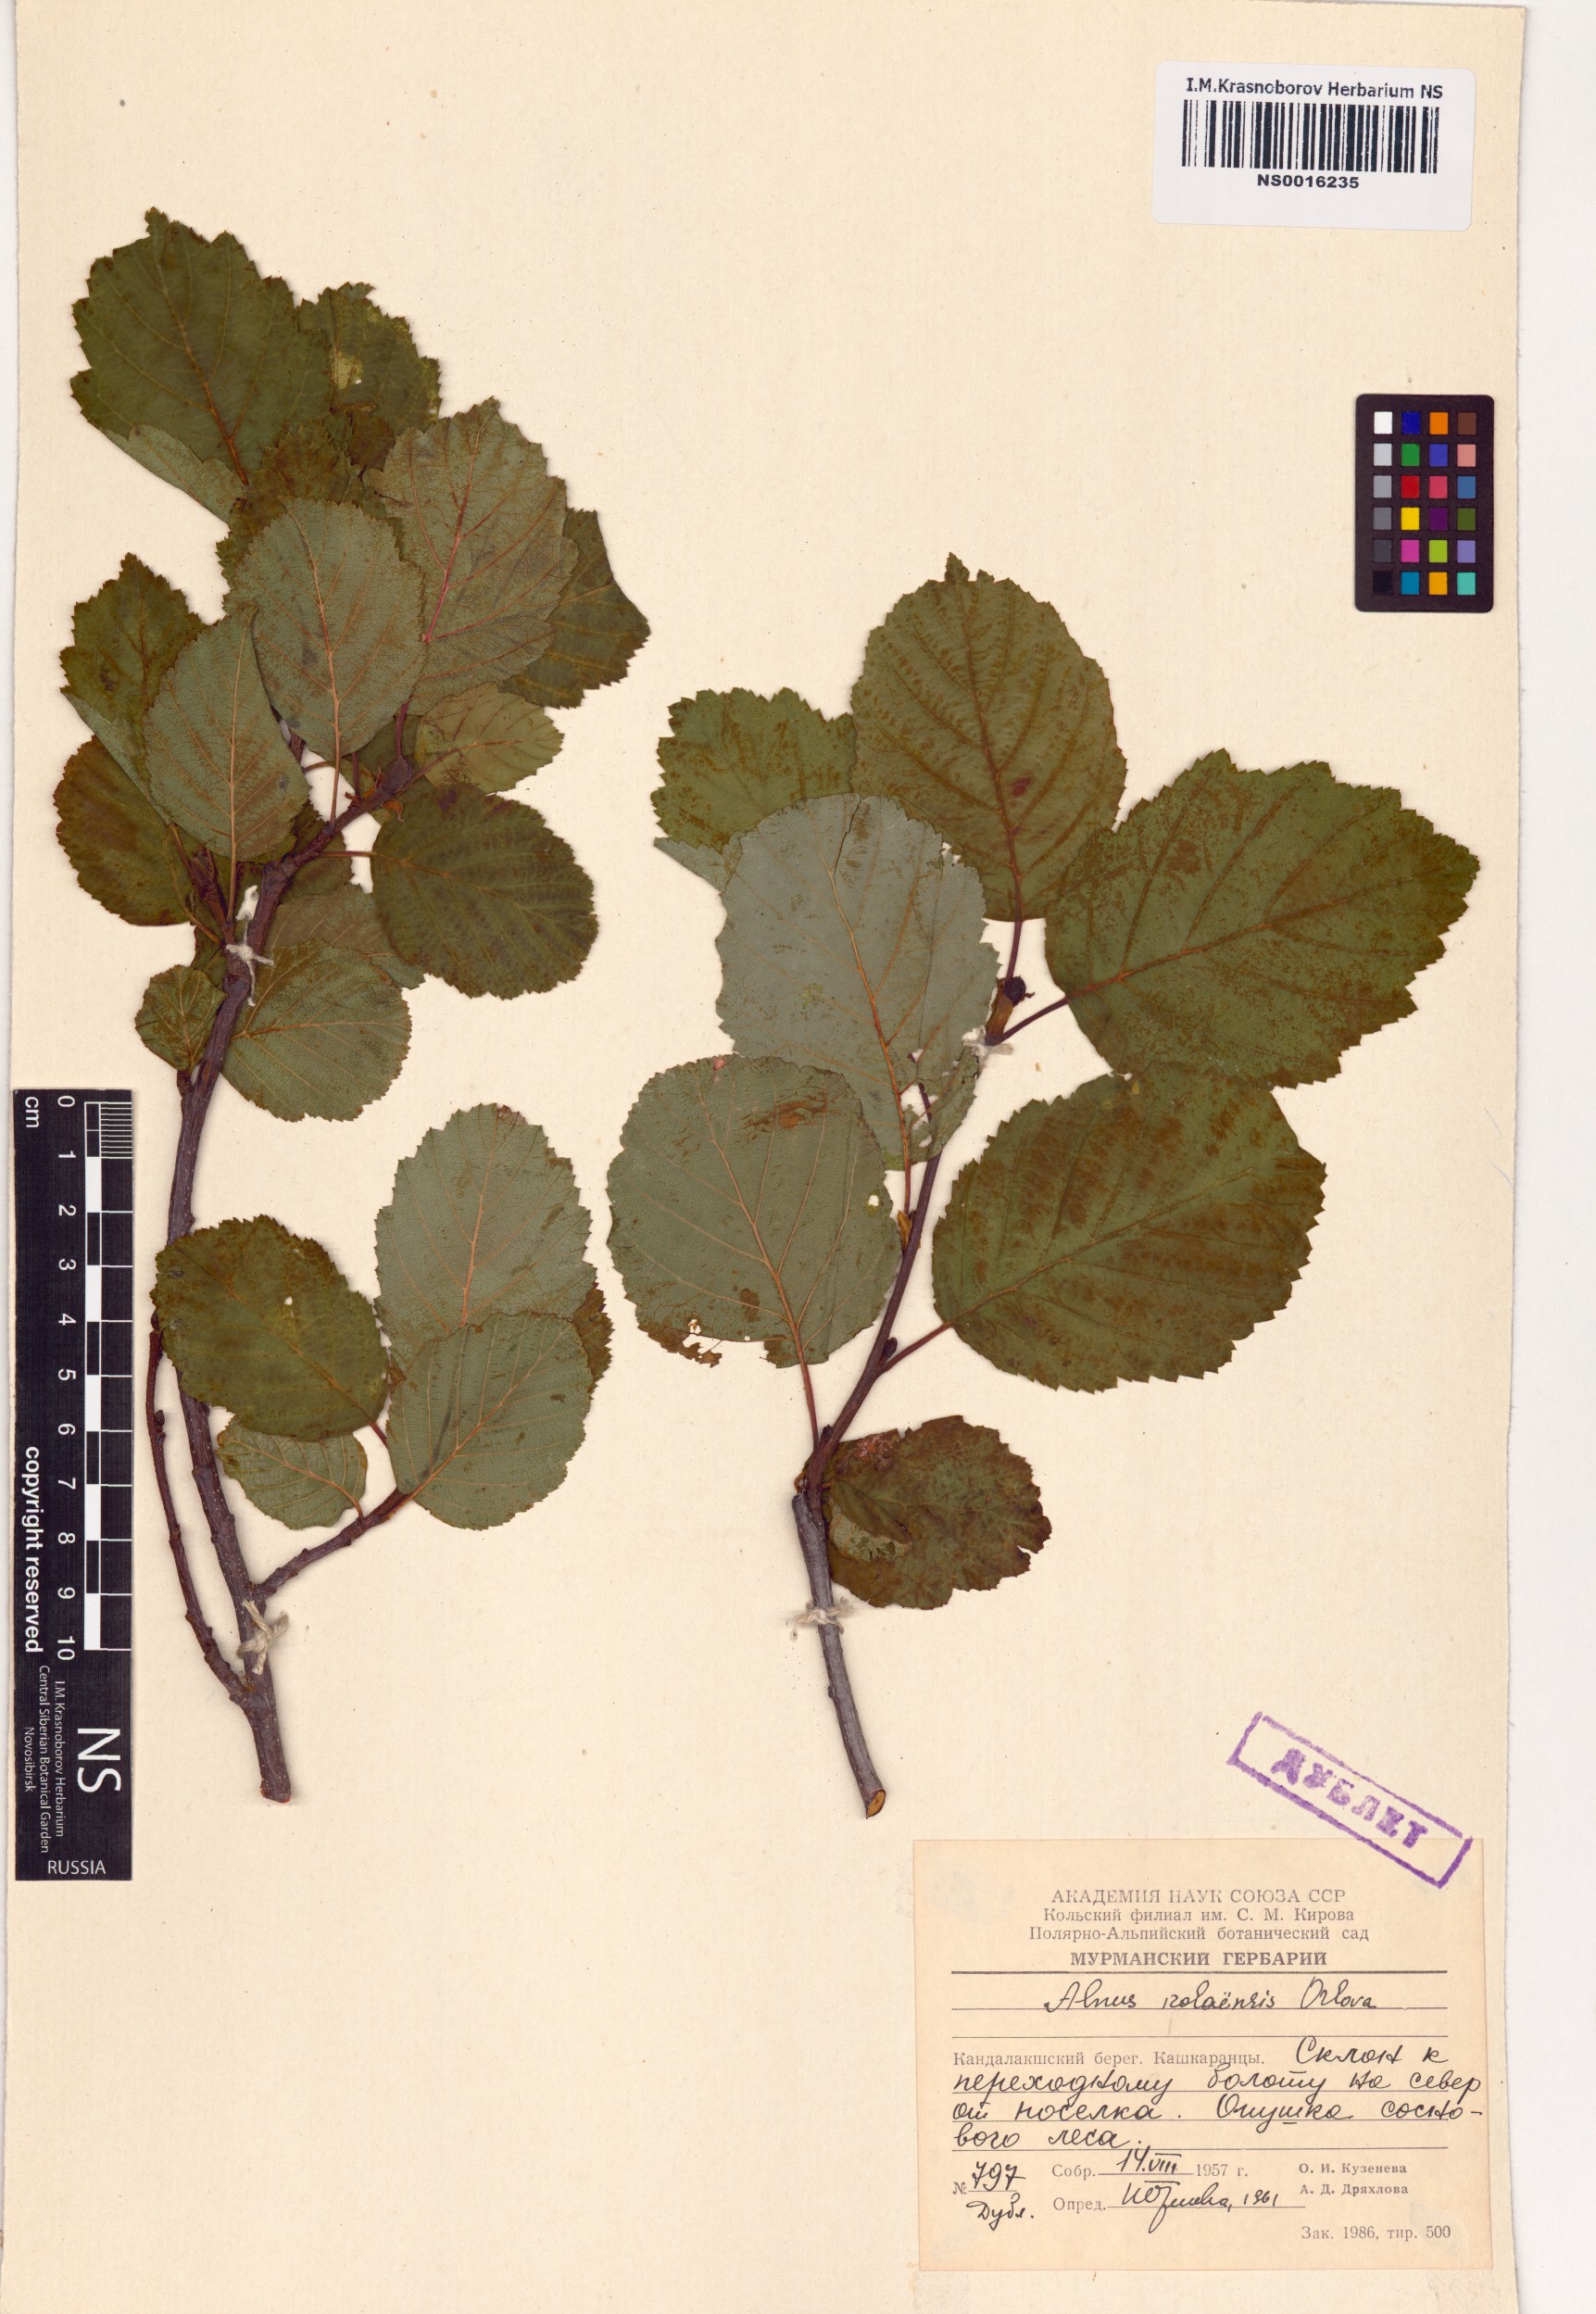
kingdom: Plantae
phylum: Tracheophyta
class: Magnoliopsida
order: Fagales
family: Betulaceae
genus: Alnus
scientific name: Alnus incana
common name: Grey alder
